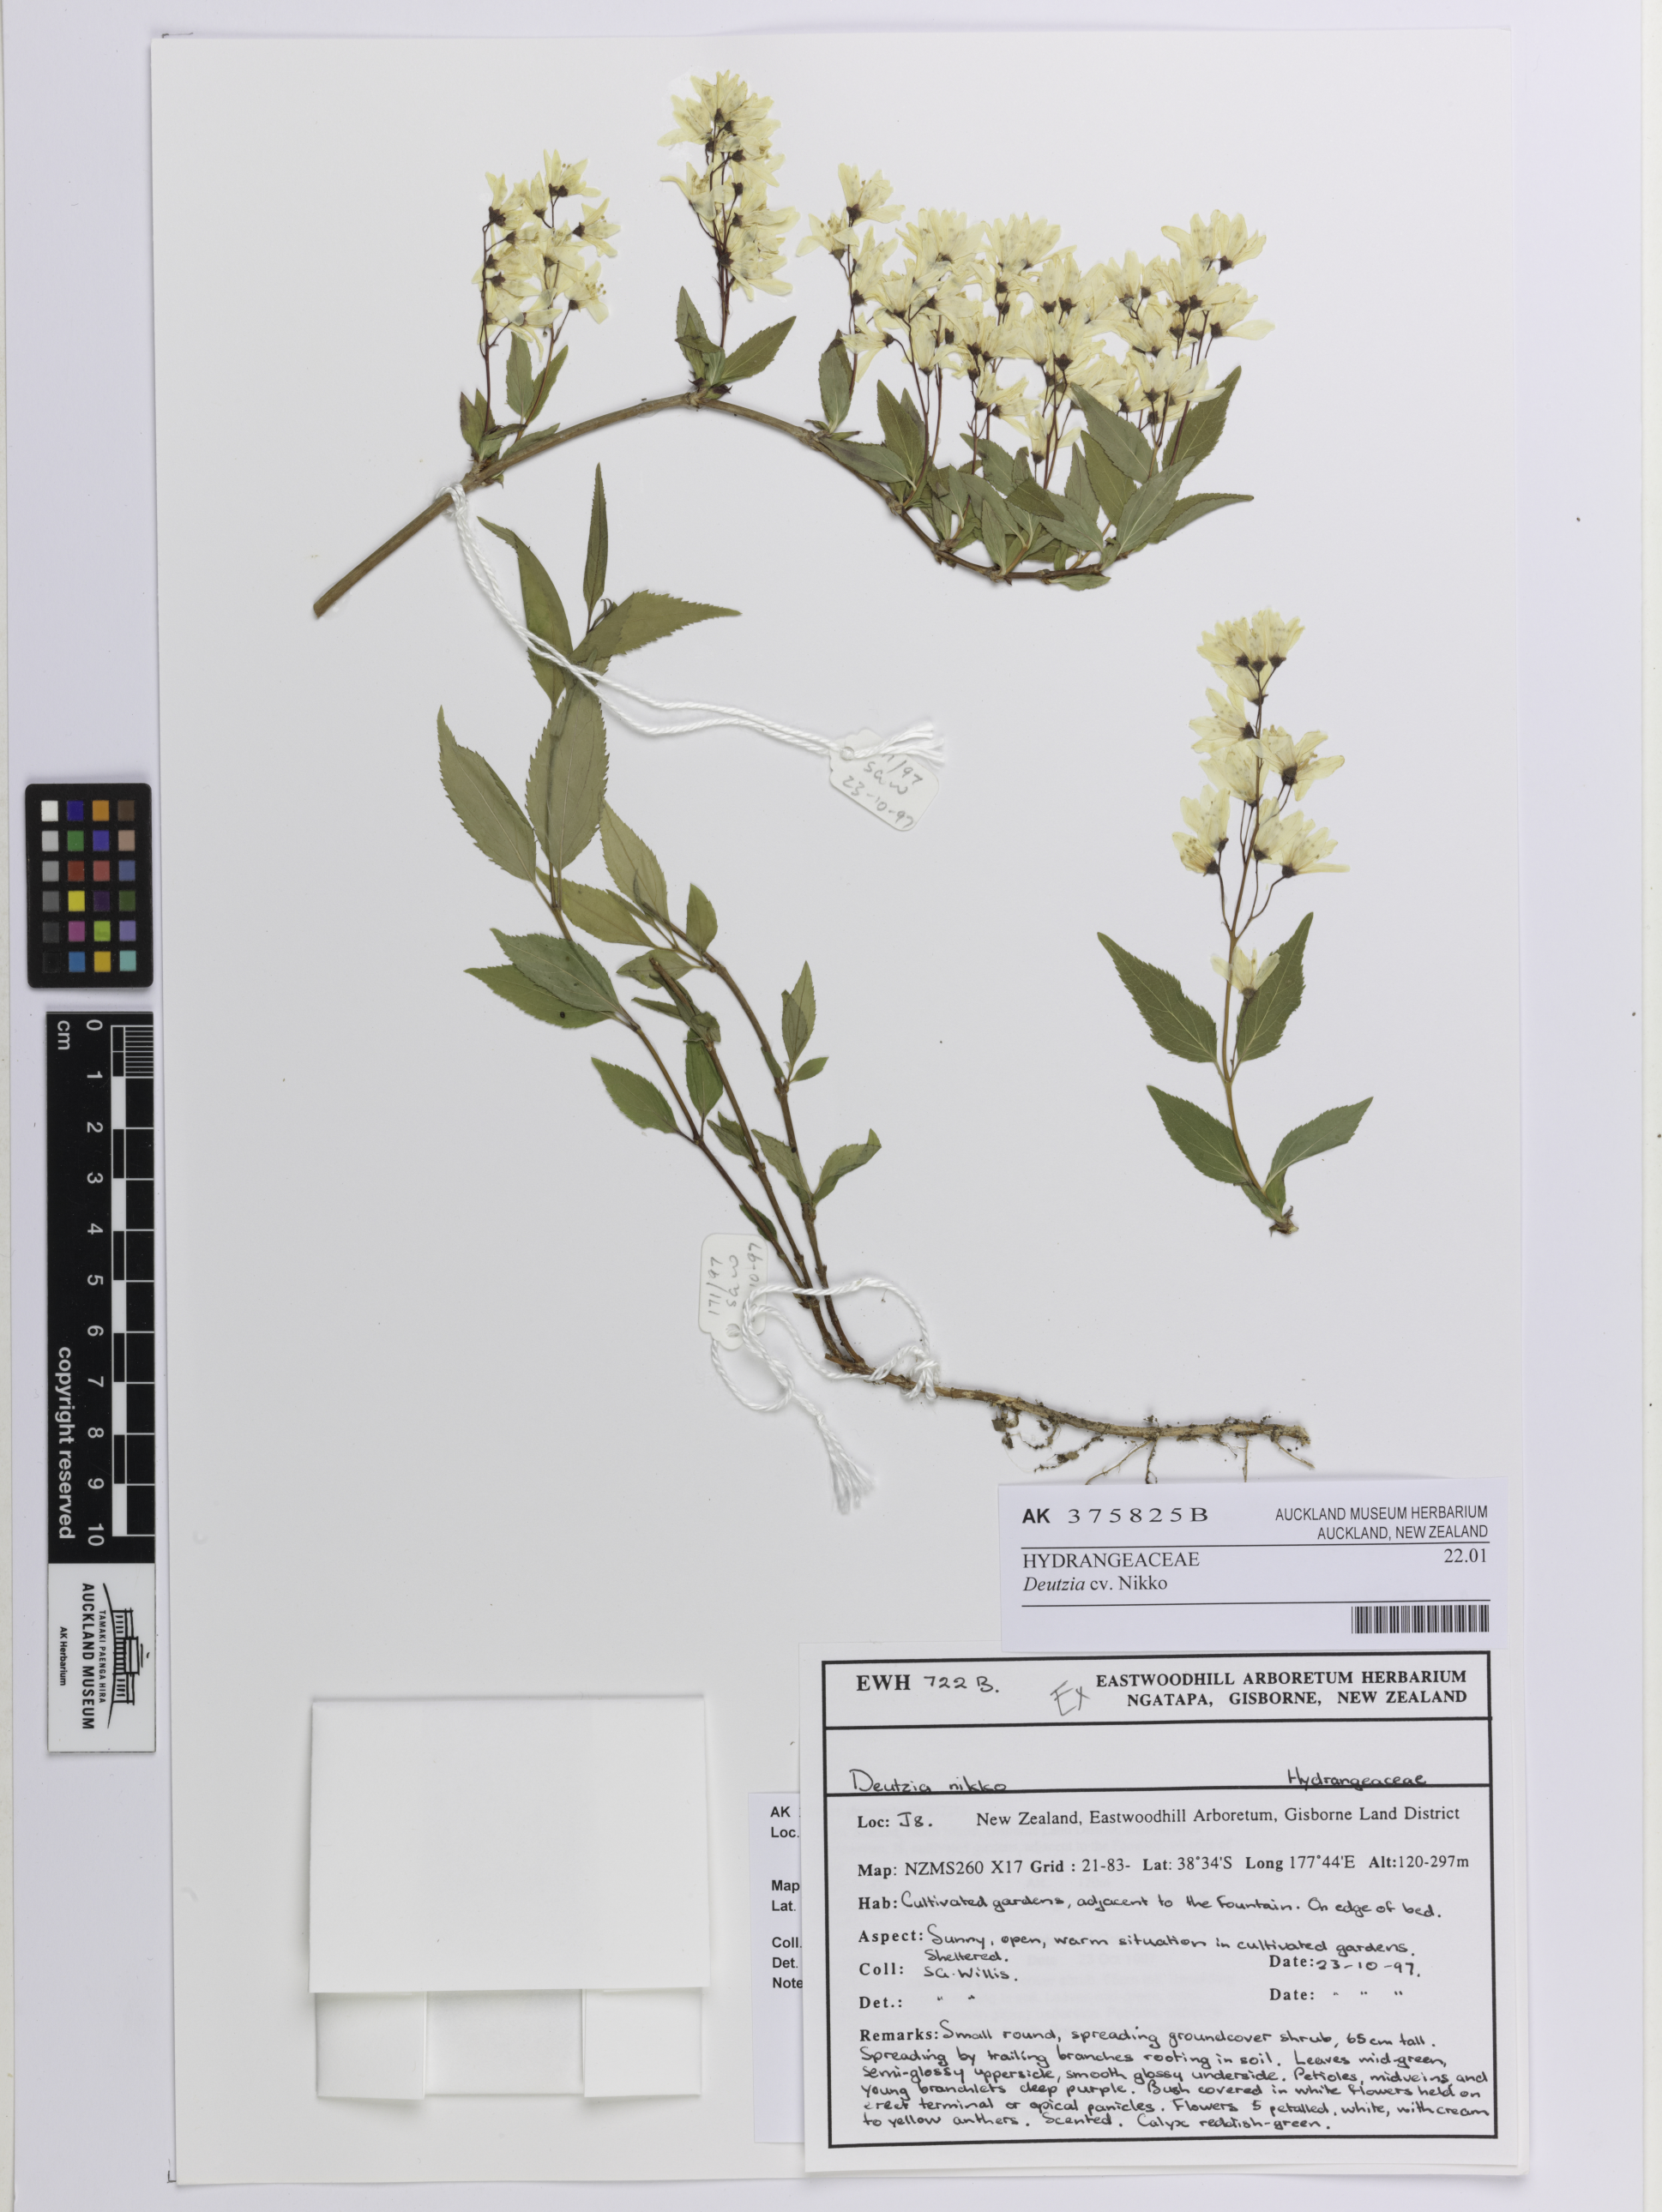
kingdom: Plantae
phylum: Tracheophyta
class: Magnoliopsida
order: Cornales
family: Hydrangeaceae
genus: Deutzia
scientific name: Deutzia
